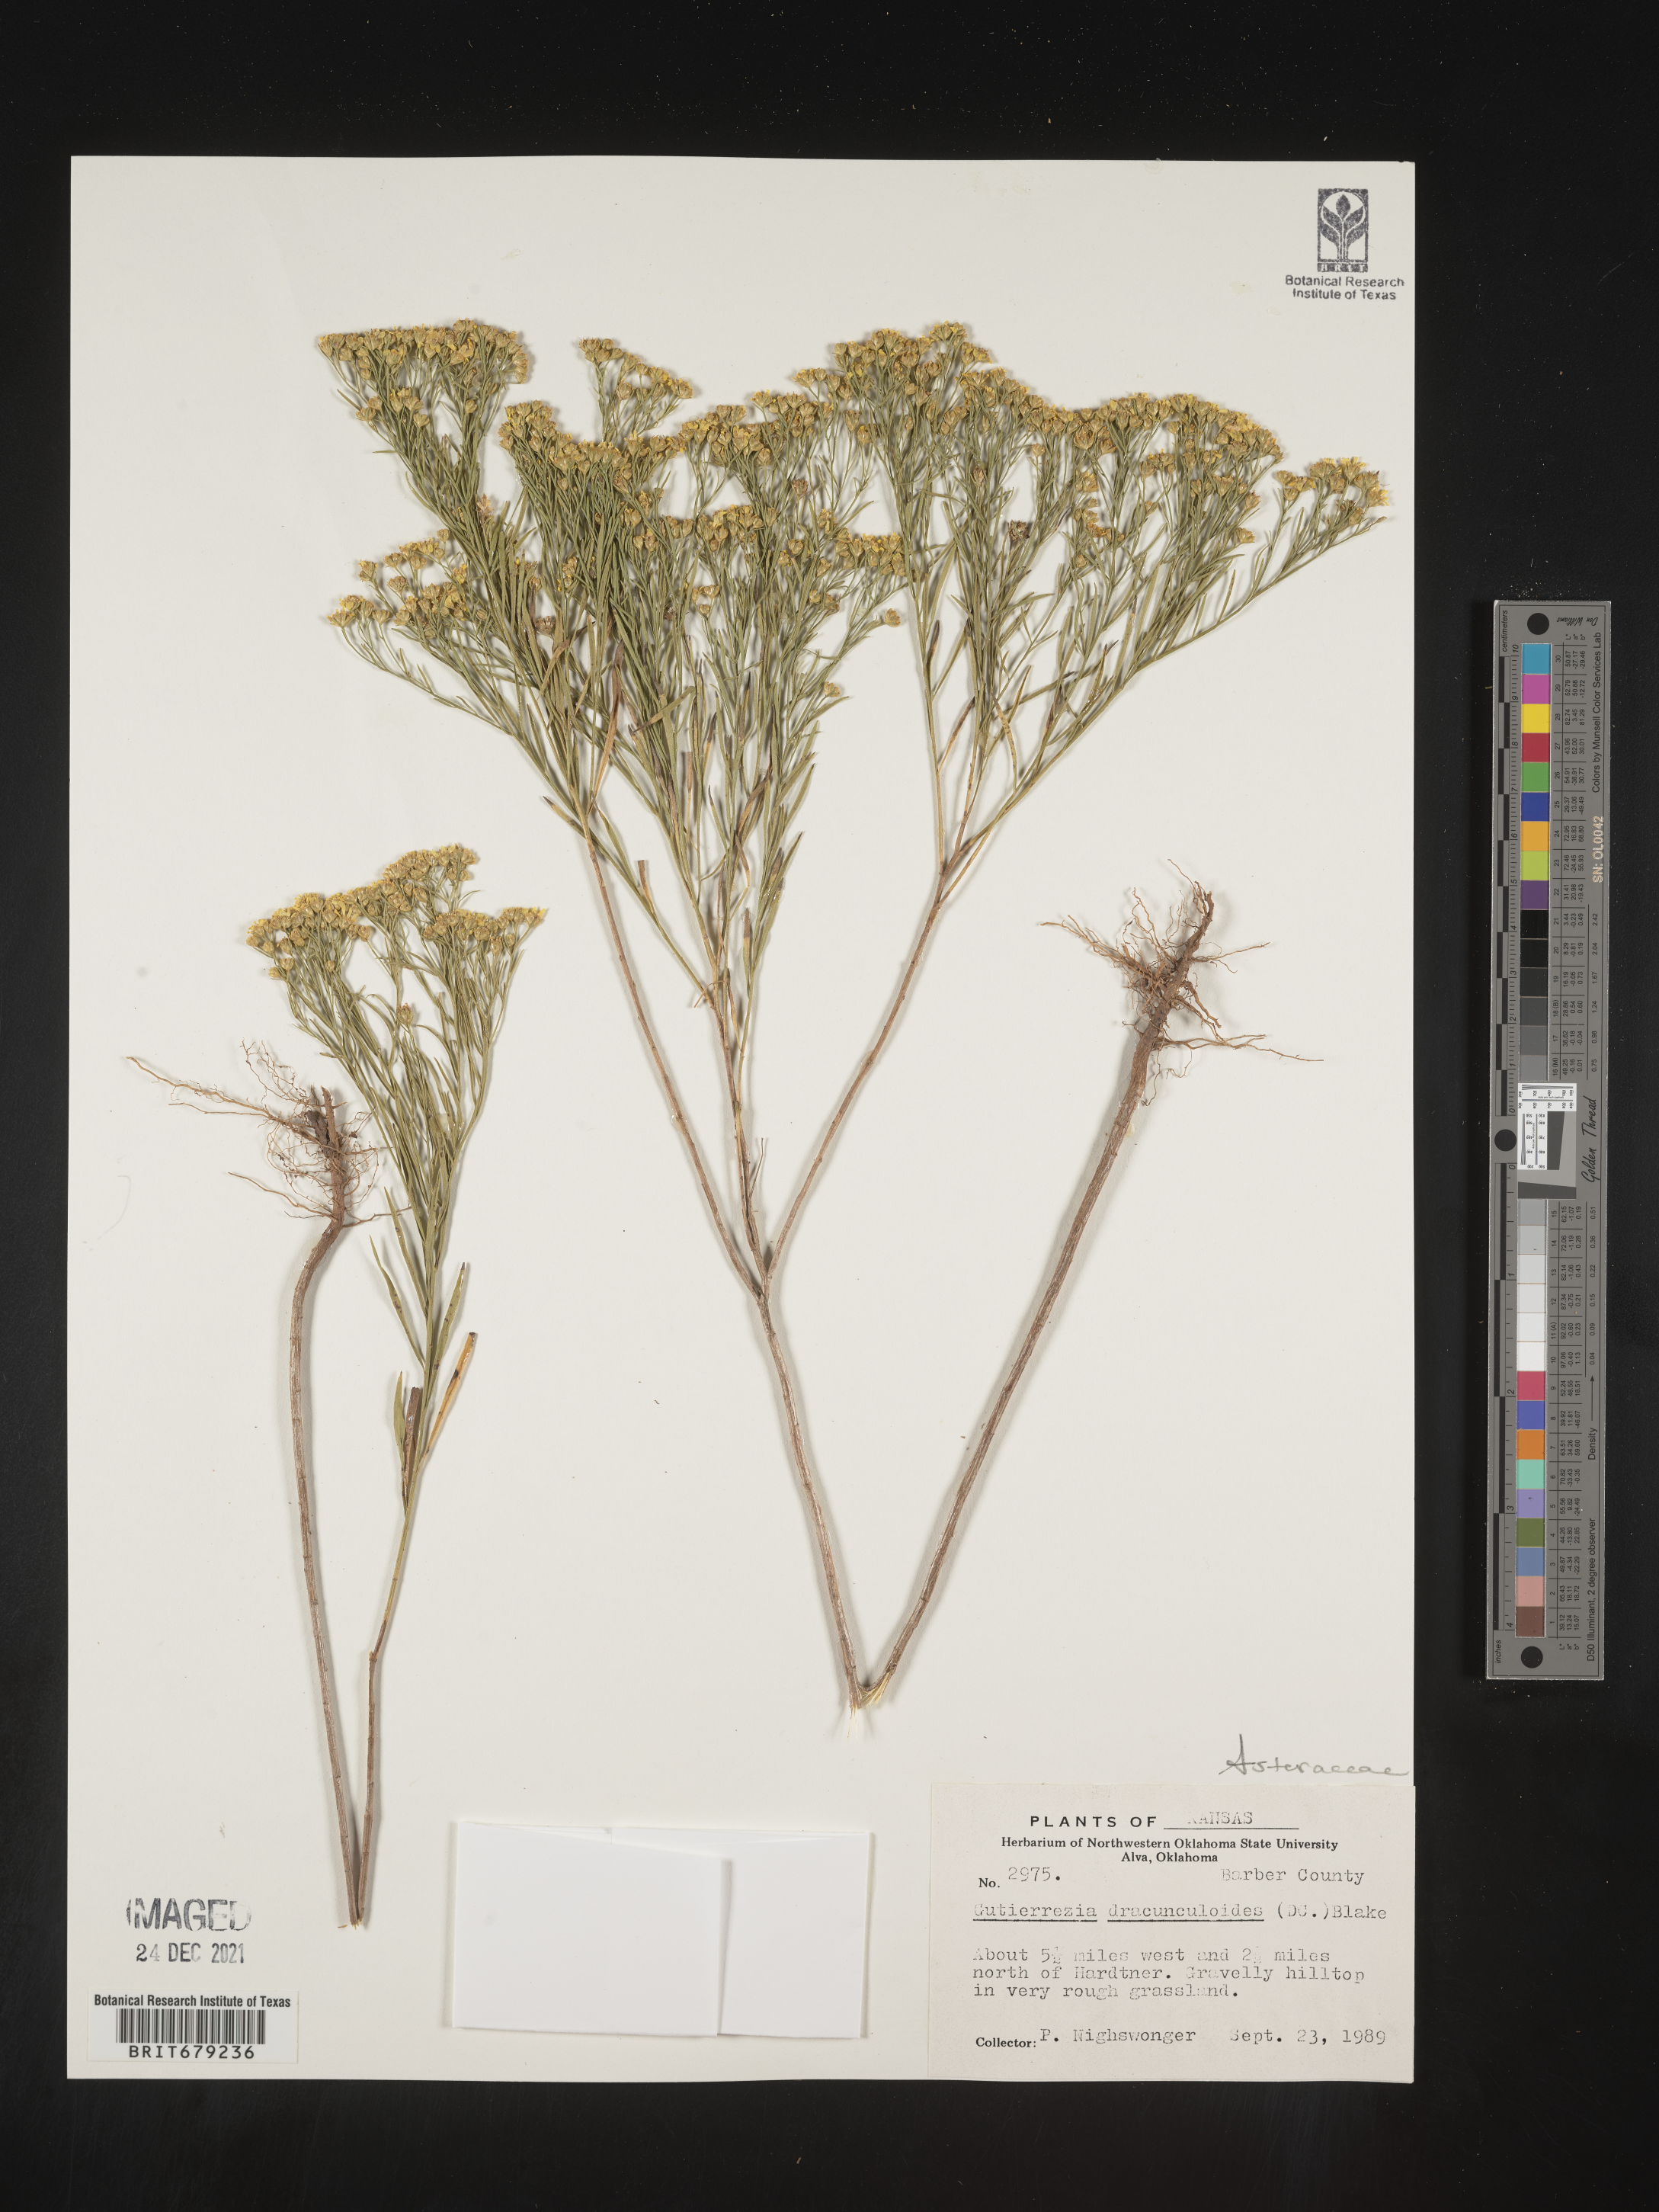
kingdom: Plantae
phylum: Tracheophyta
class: Magnoliopsida
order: Asterales
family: Asteraceae
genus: Amphiachyris
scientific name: Amphiachyris dracunculoides
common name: Broomweed
